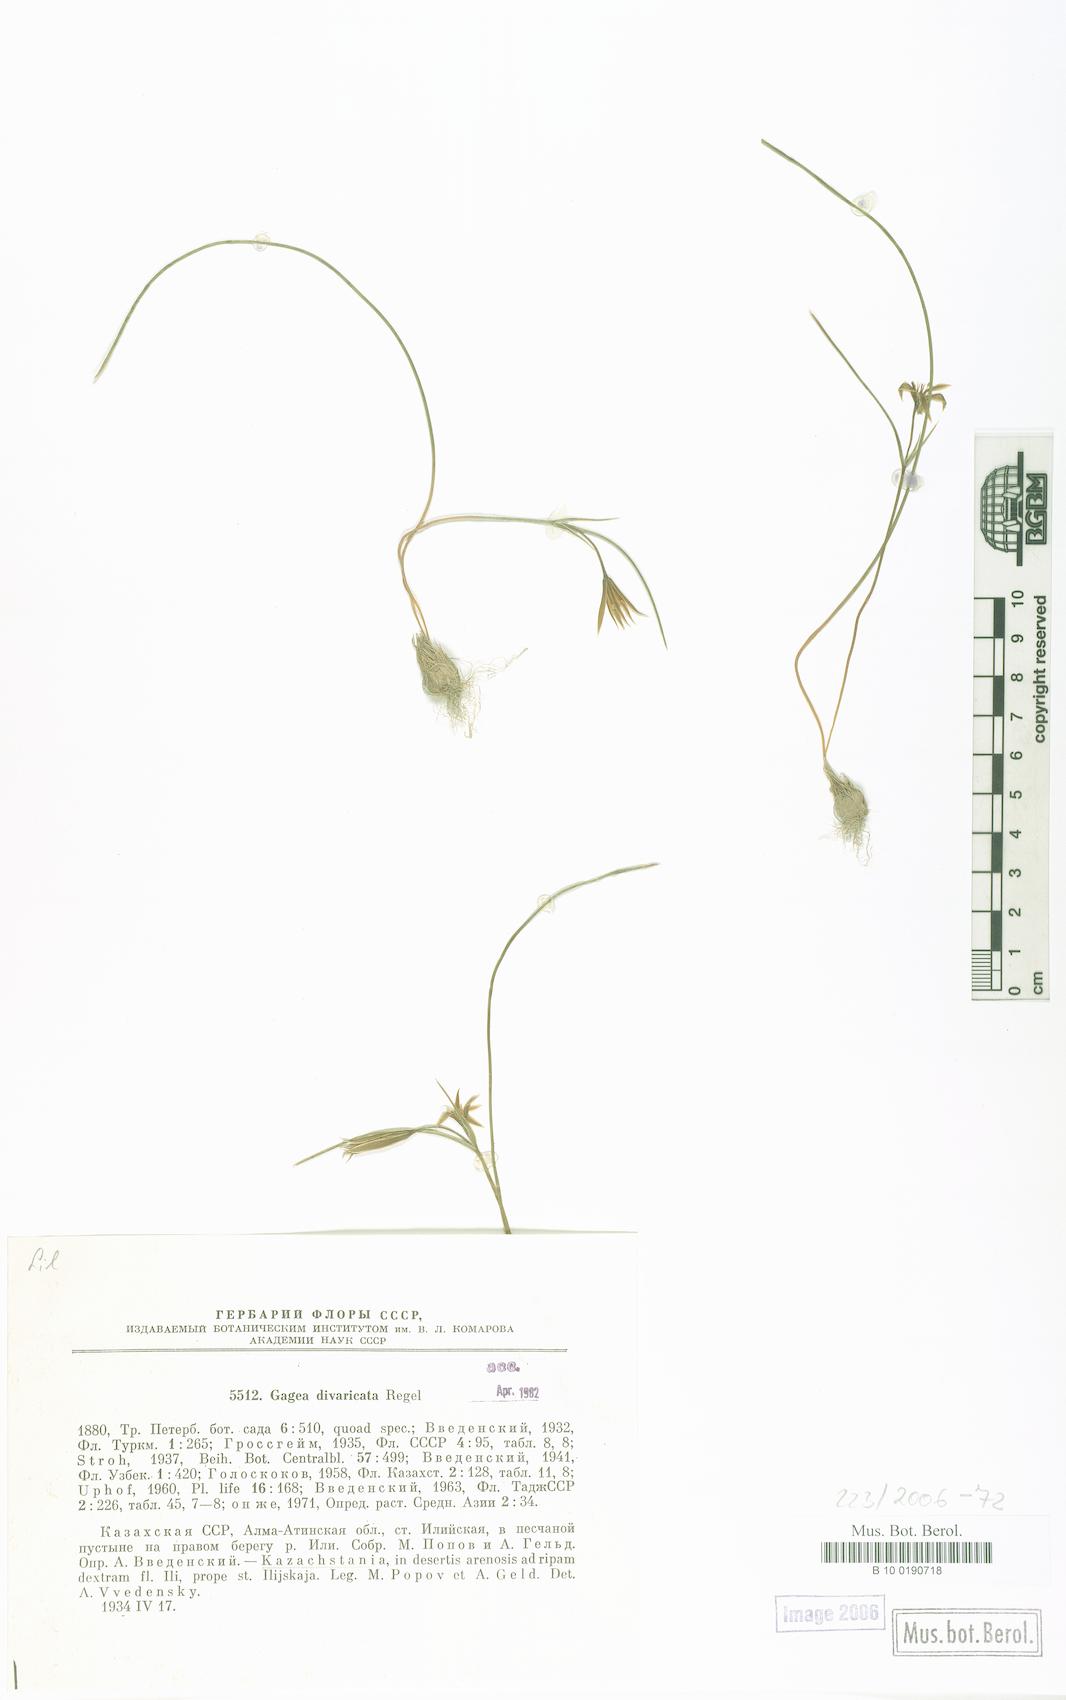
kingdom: Plantae
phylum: Tracheophyta
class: Liliopsida
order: Liliales
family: Liliaceae
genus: Gagea
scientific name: Gagea divaricata
